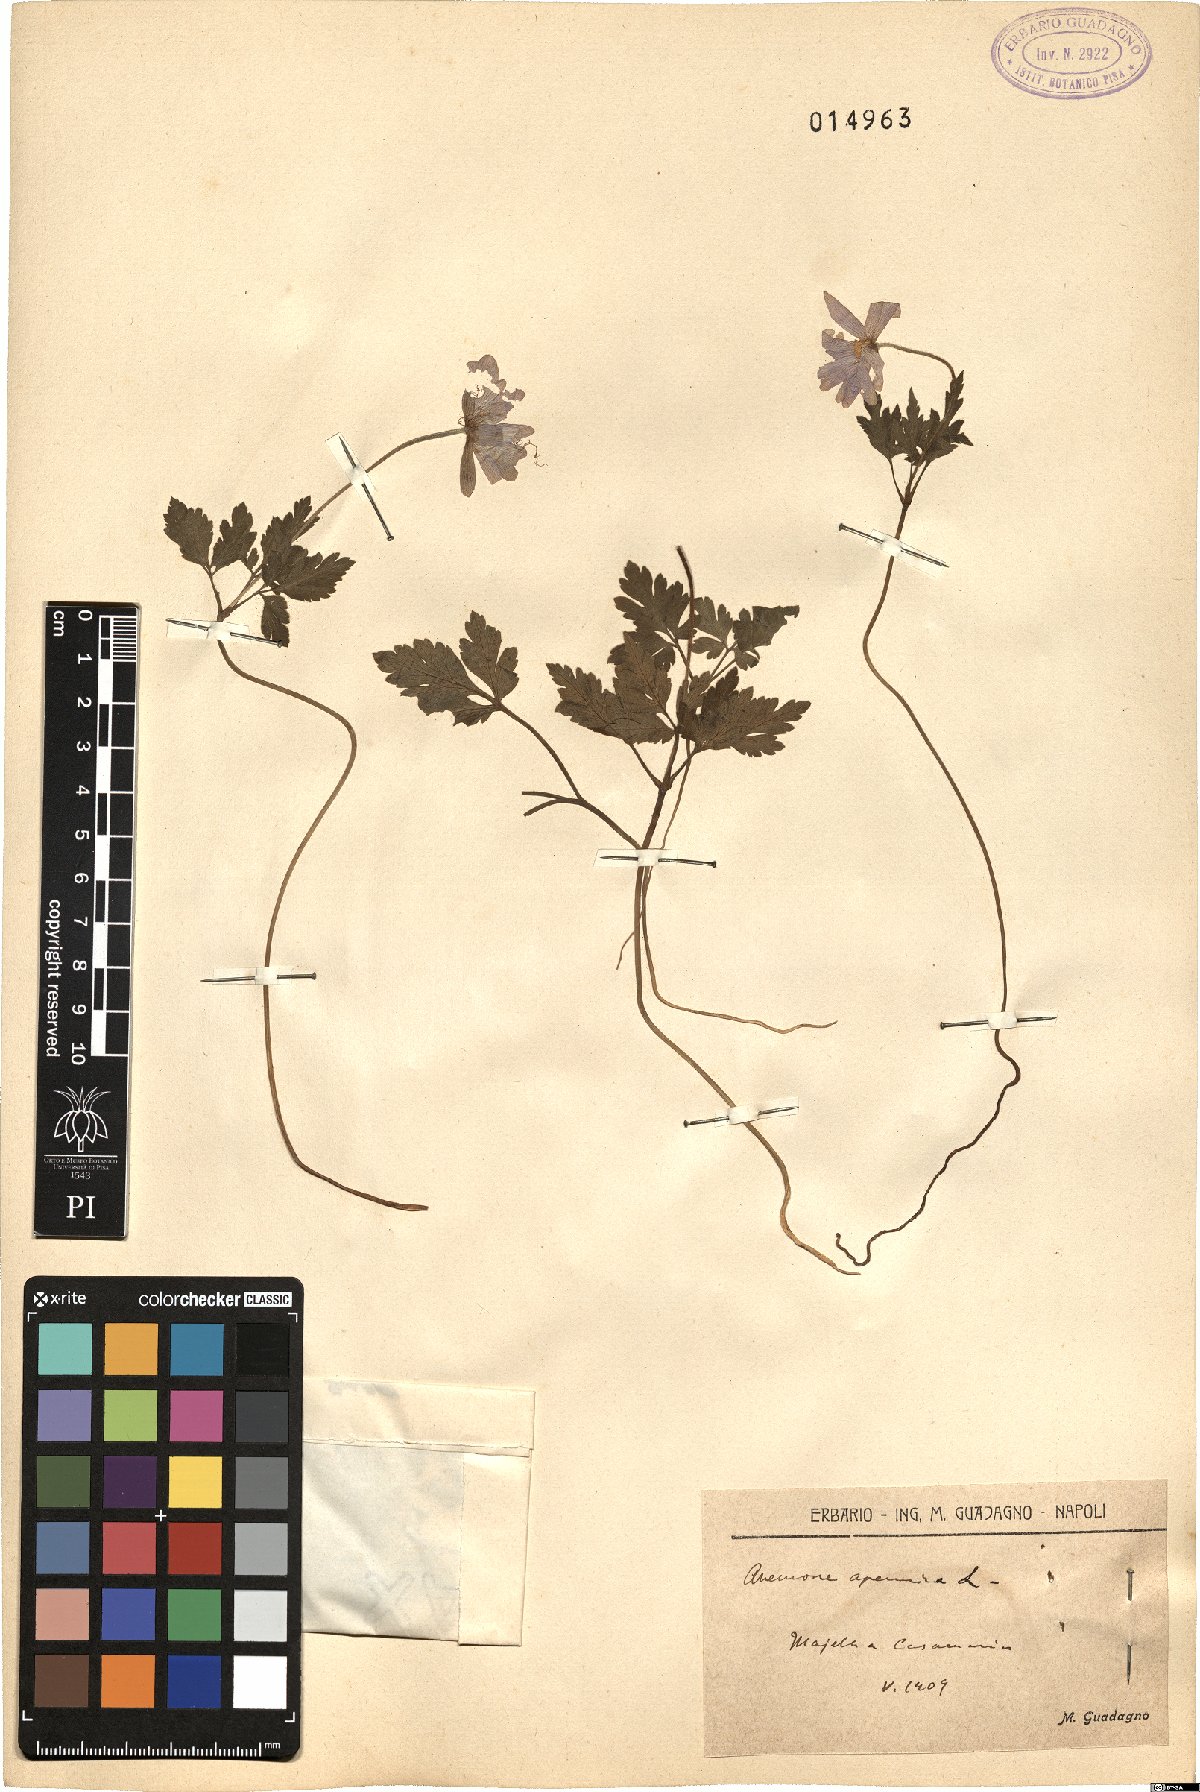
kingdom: Plantae
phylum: Tracheophyta
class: Magnoliopsida
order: Ranunculales
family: Ranunculaceae
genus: Anemone
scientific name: Anemone apennina
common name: Blue anemone
